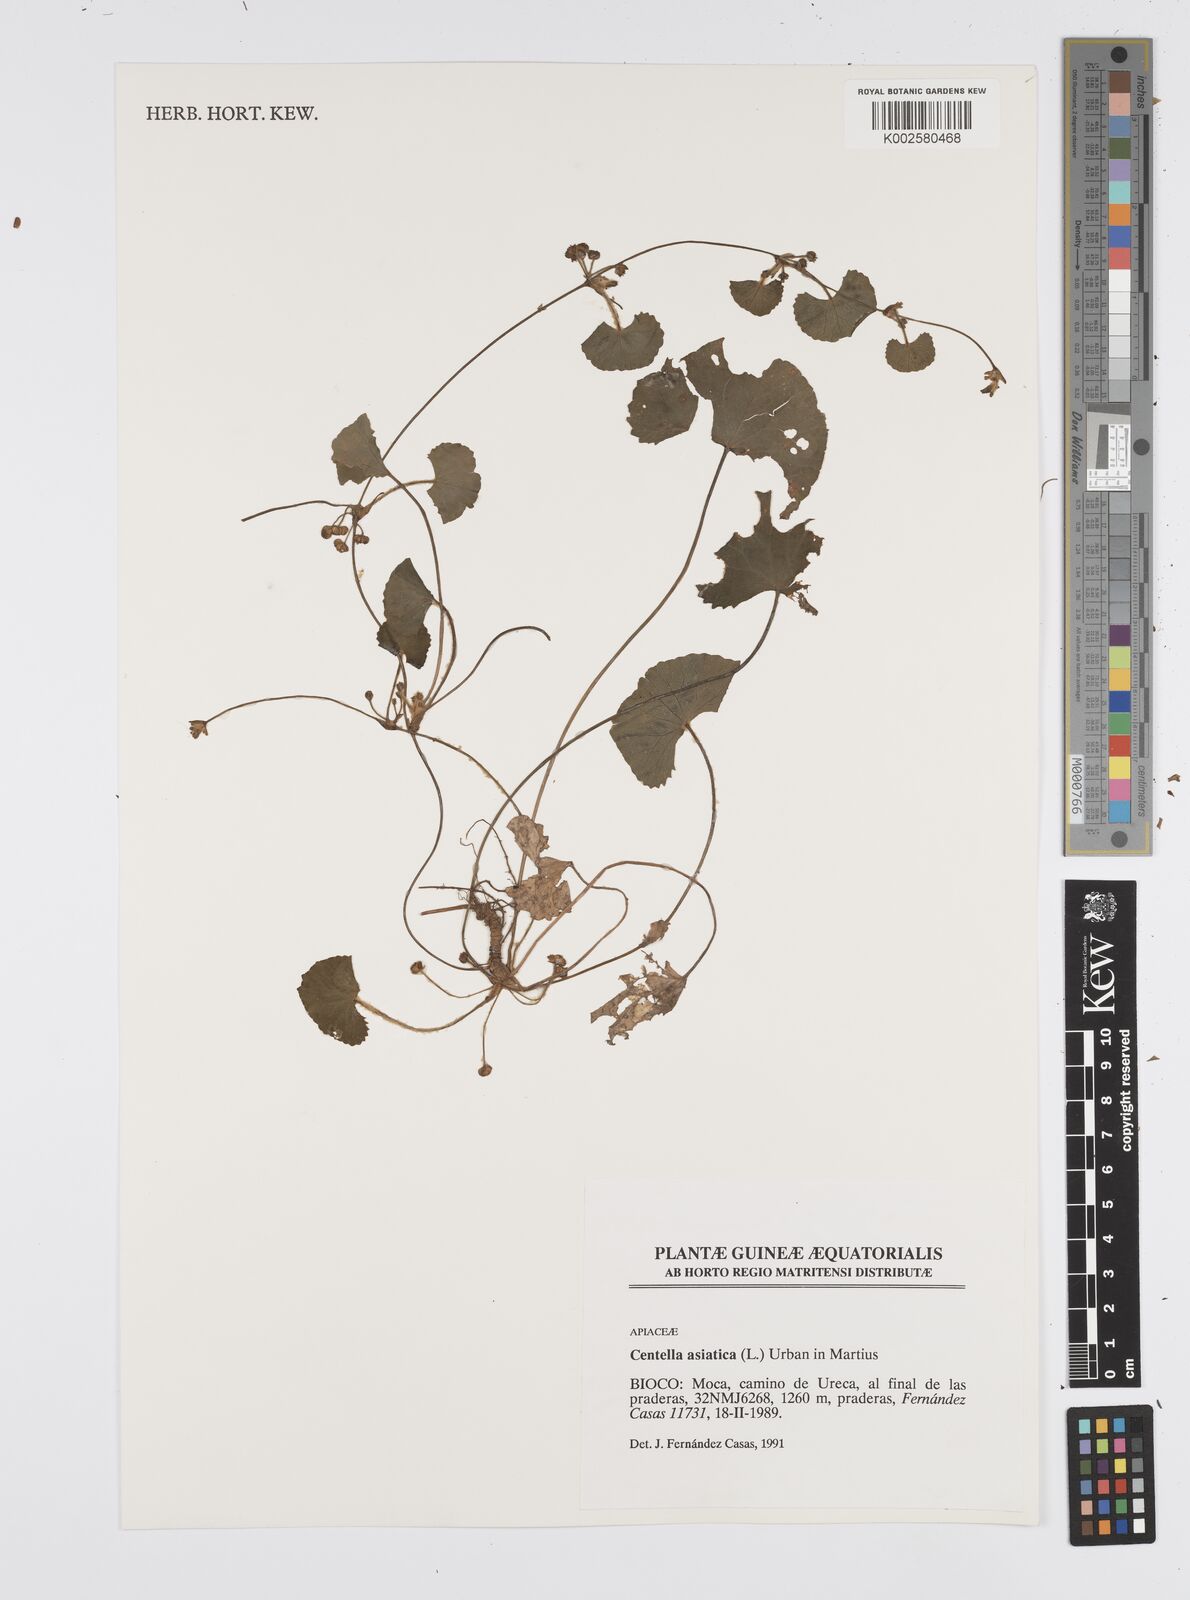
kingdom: Plantae
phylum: Tracheophyta
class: Magnoliopsida
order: Apiales
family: Apiaceae
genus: Centella
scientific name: Centella asiatica
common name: Spadeleaf
